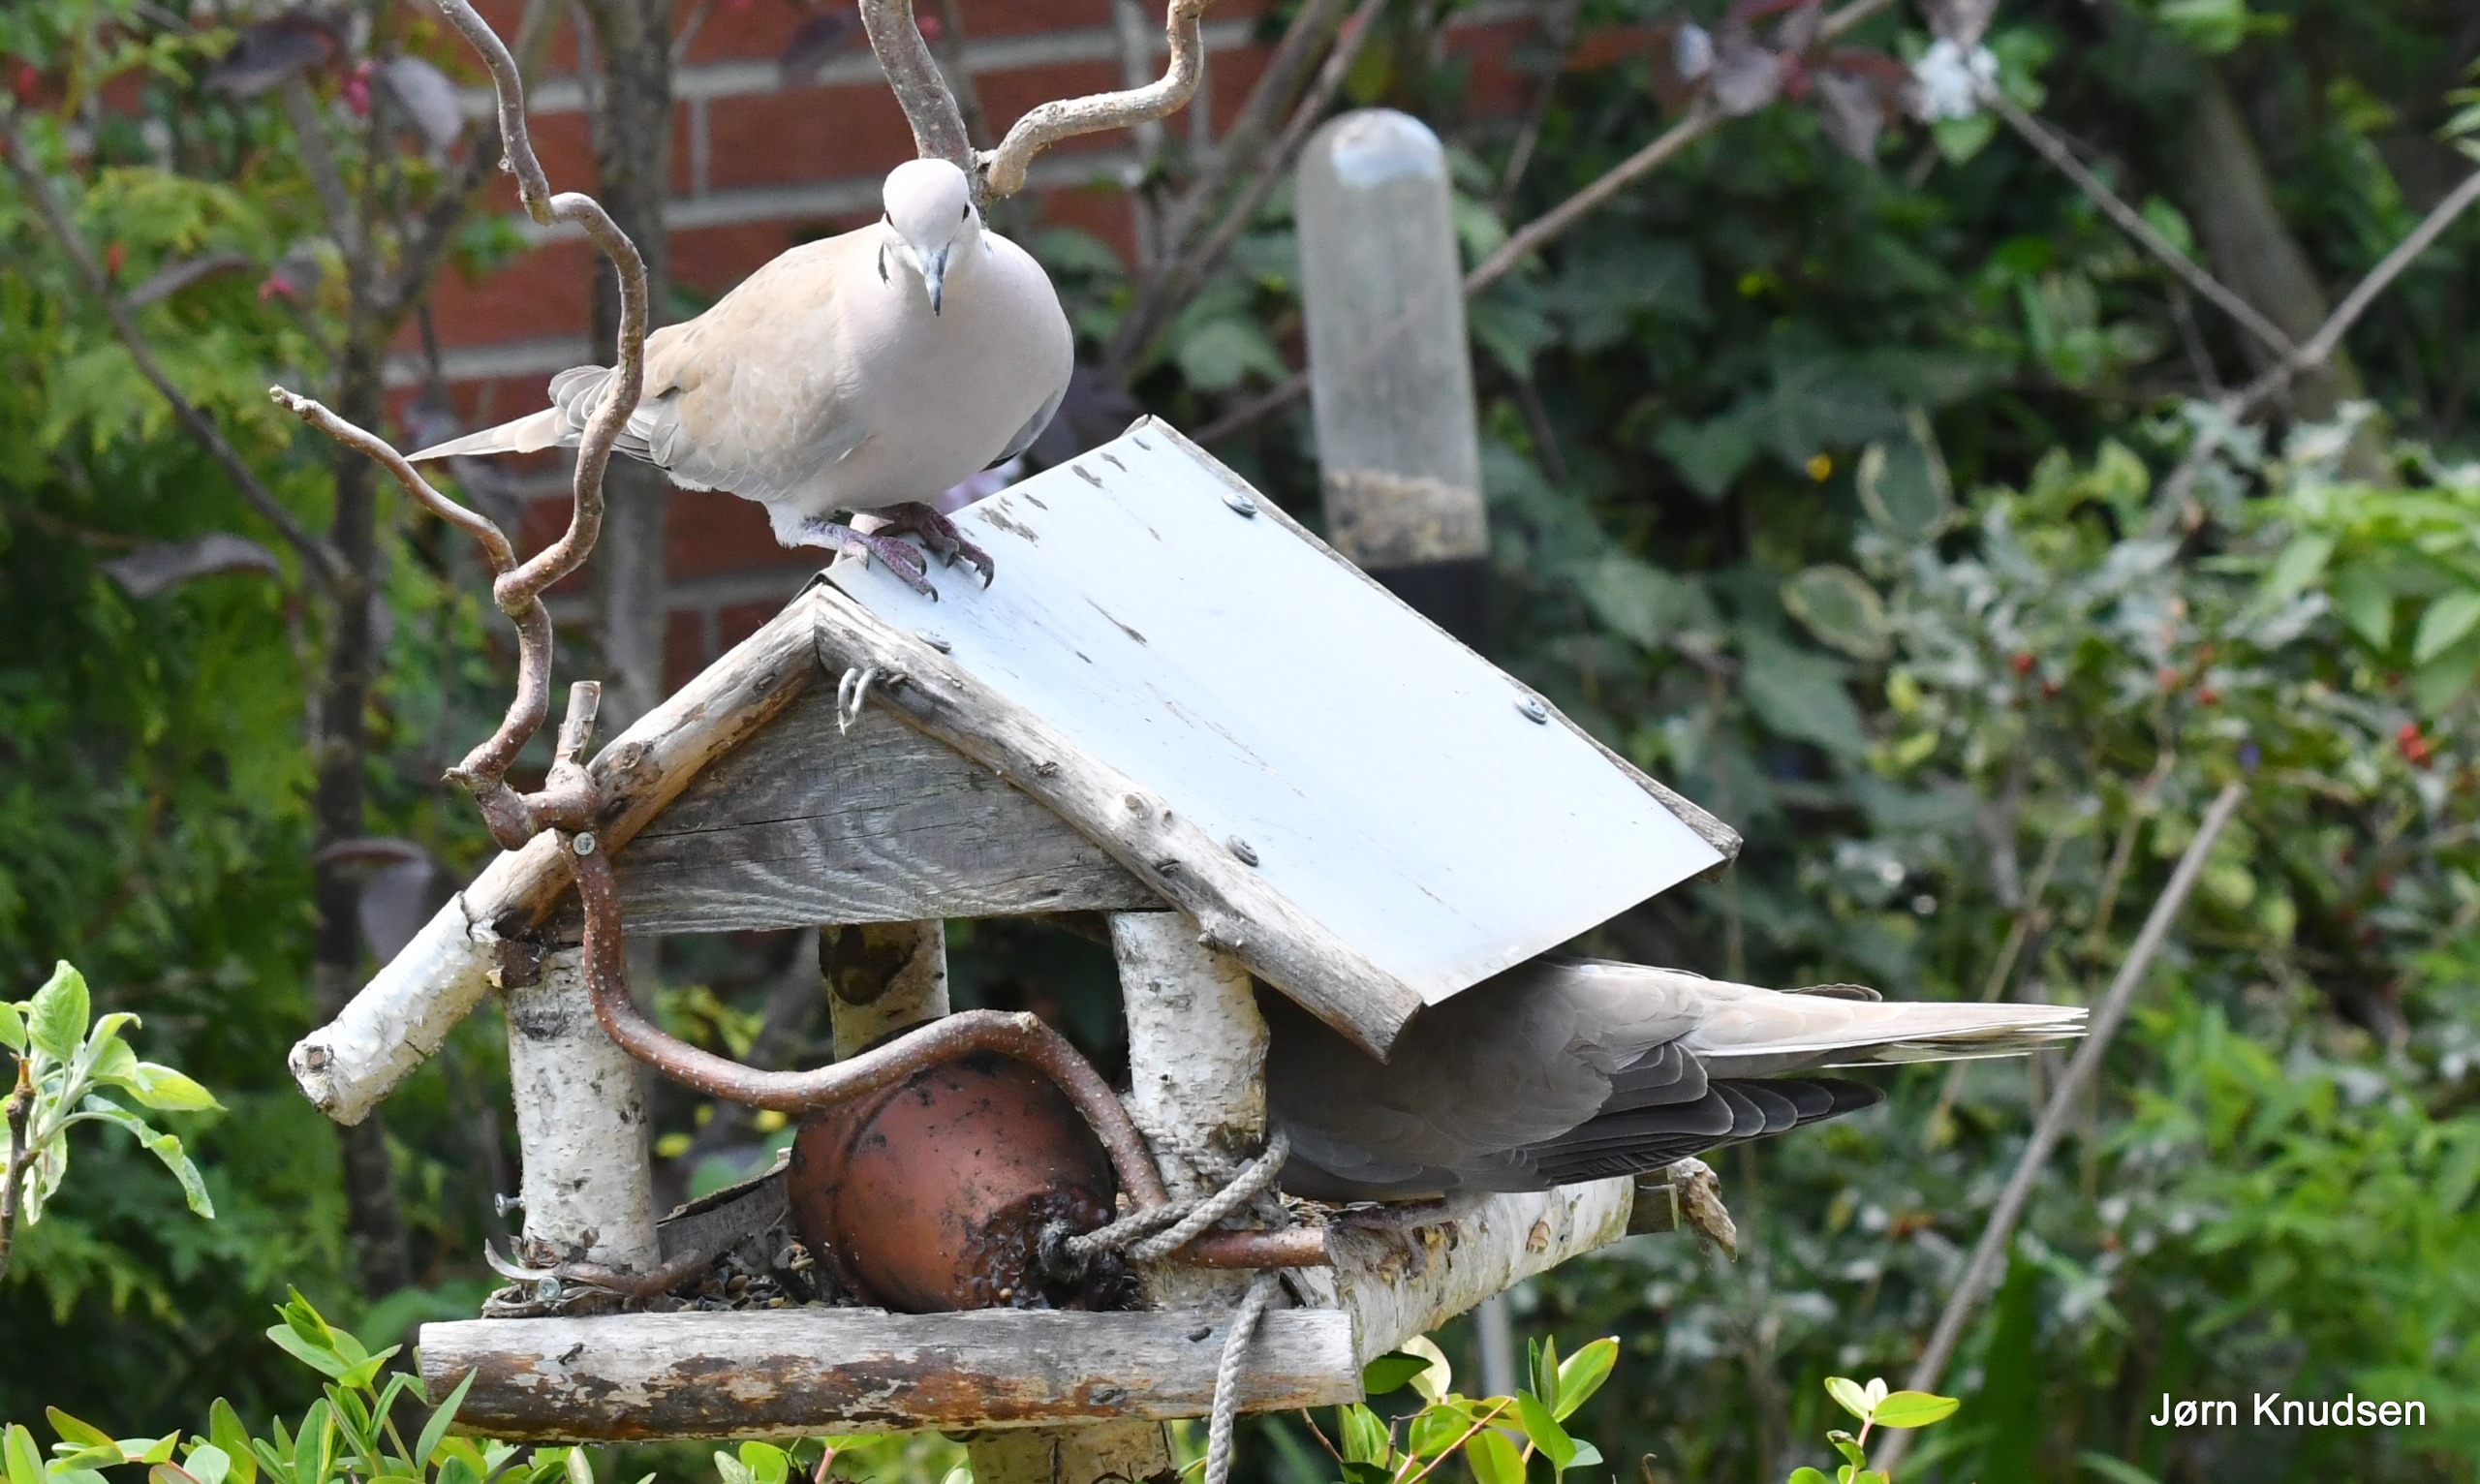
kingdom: Animalia
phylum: Chordata
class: Aves
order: Columbiformes
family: Columbidae
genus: Streptopelia
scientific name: Streptopelia decaocto
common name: Tyrkerdue
